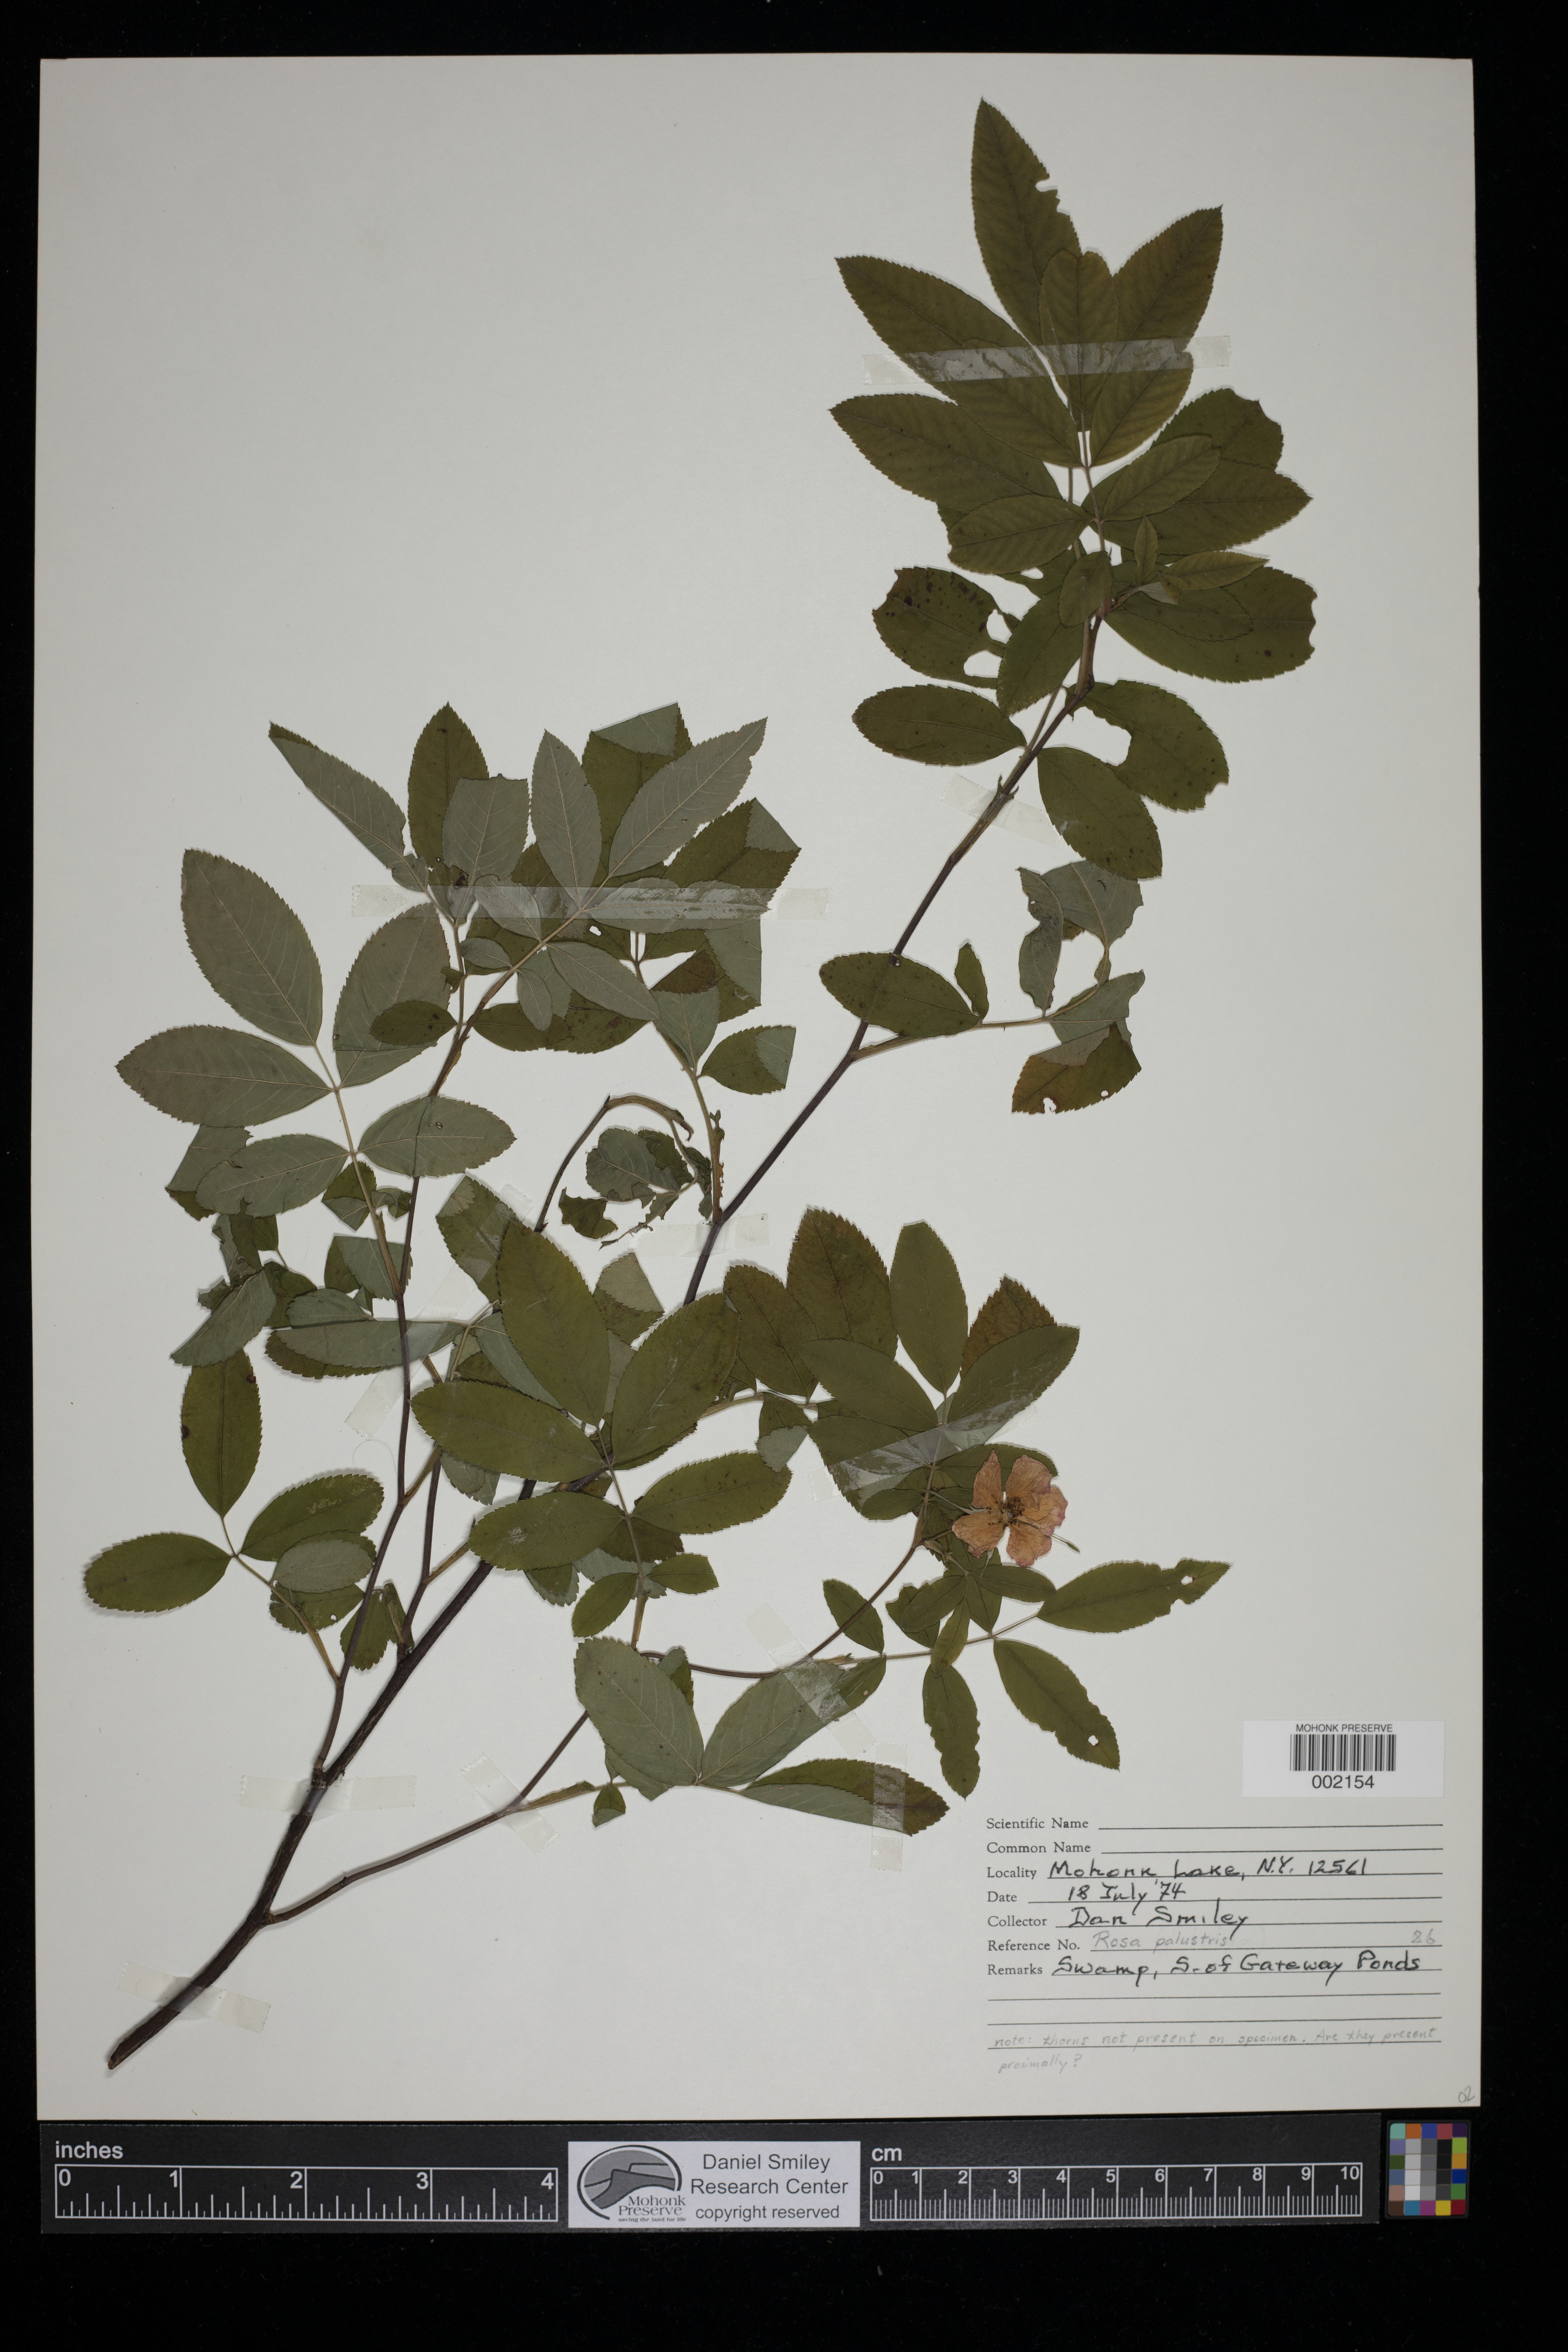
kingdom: Plantae
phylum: Tracheophyta
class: Magnoliopsida
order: Rosales
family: Rosaceae
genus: Rosa
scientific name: Rosa palustris
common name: Swamp rose
